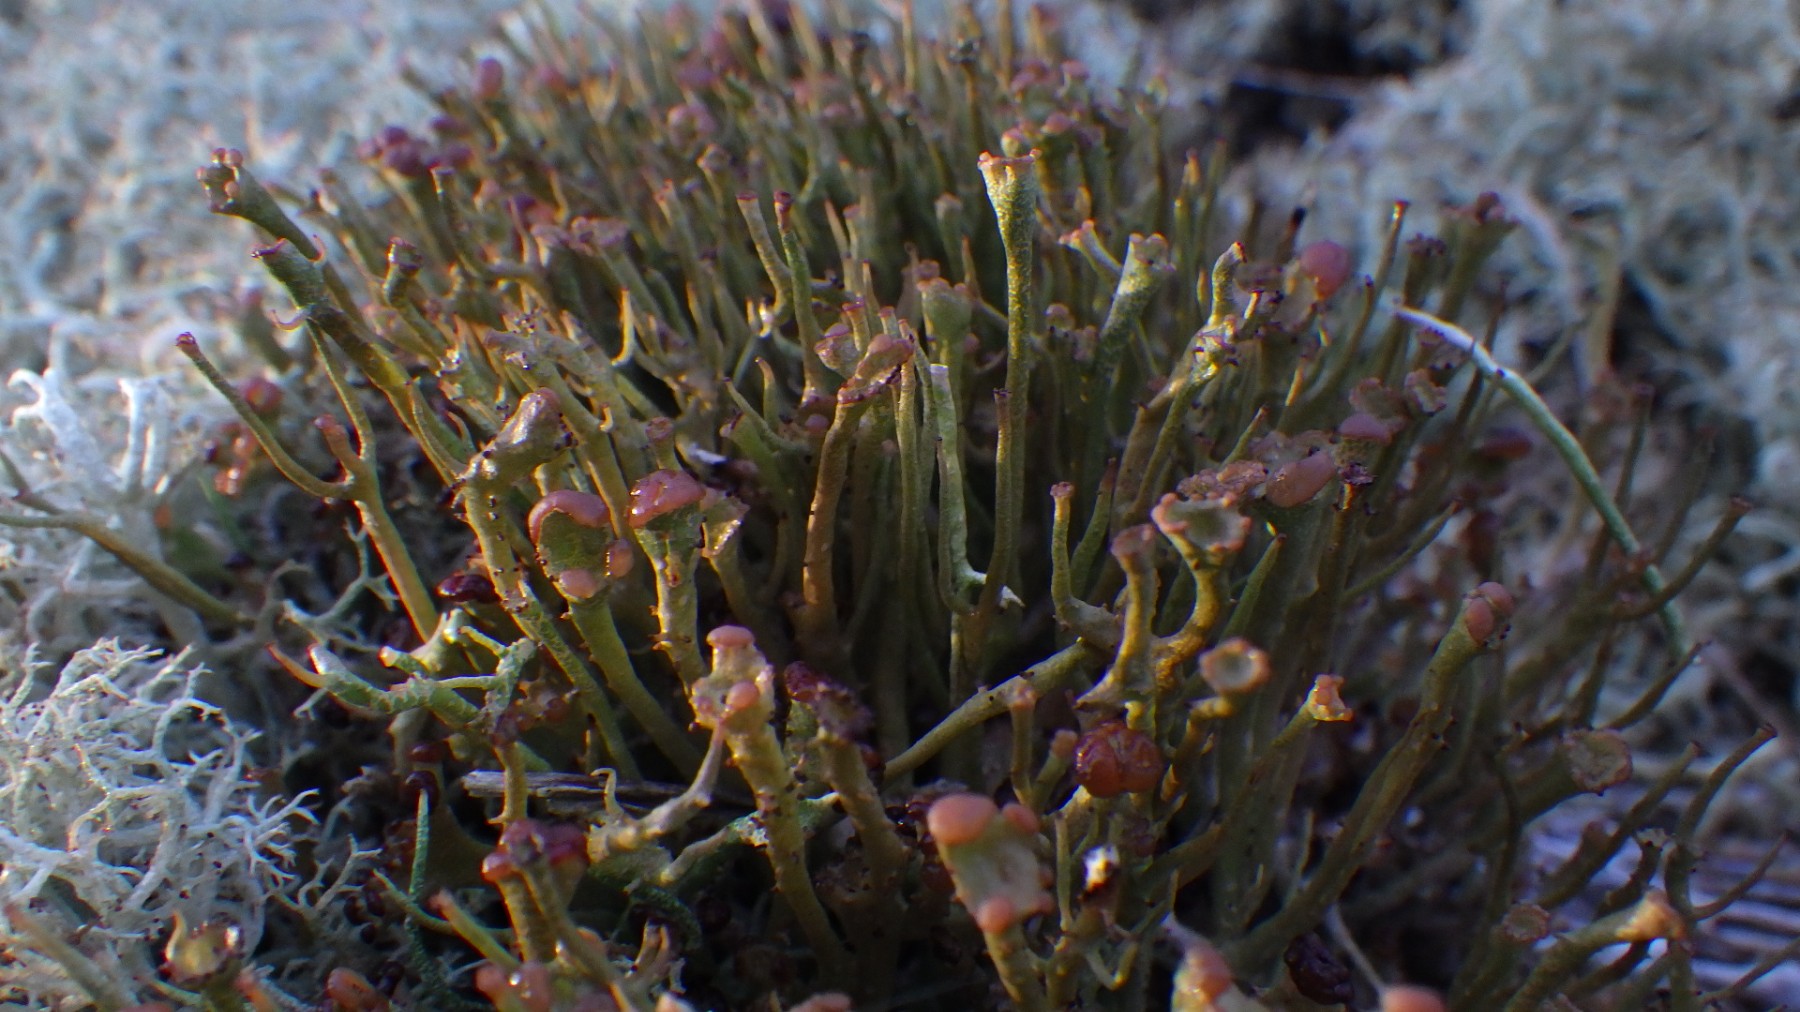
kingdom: Fungi
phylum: Ascomycota
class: Lecanoromycetes
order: Lecanorales
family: Cladoniaceae
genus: Cladonia
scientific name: Cladonia gracilis
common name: slank bægerlav
